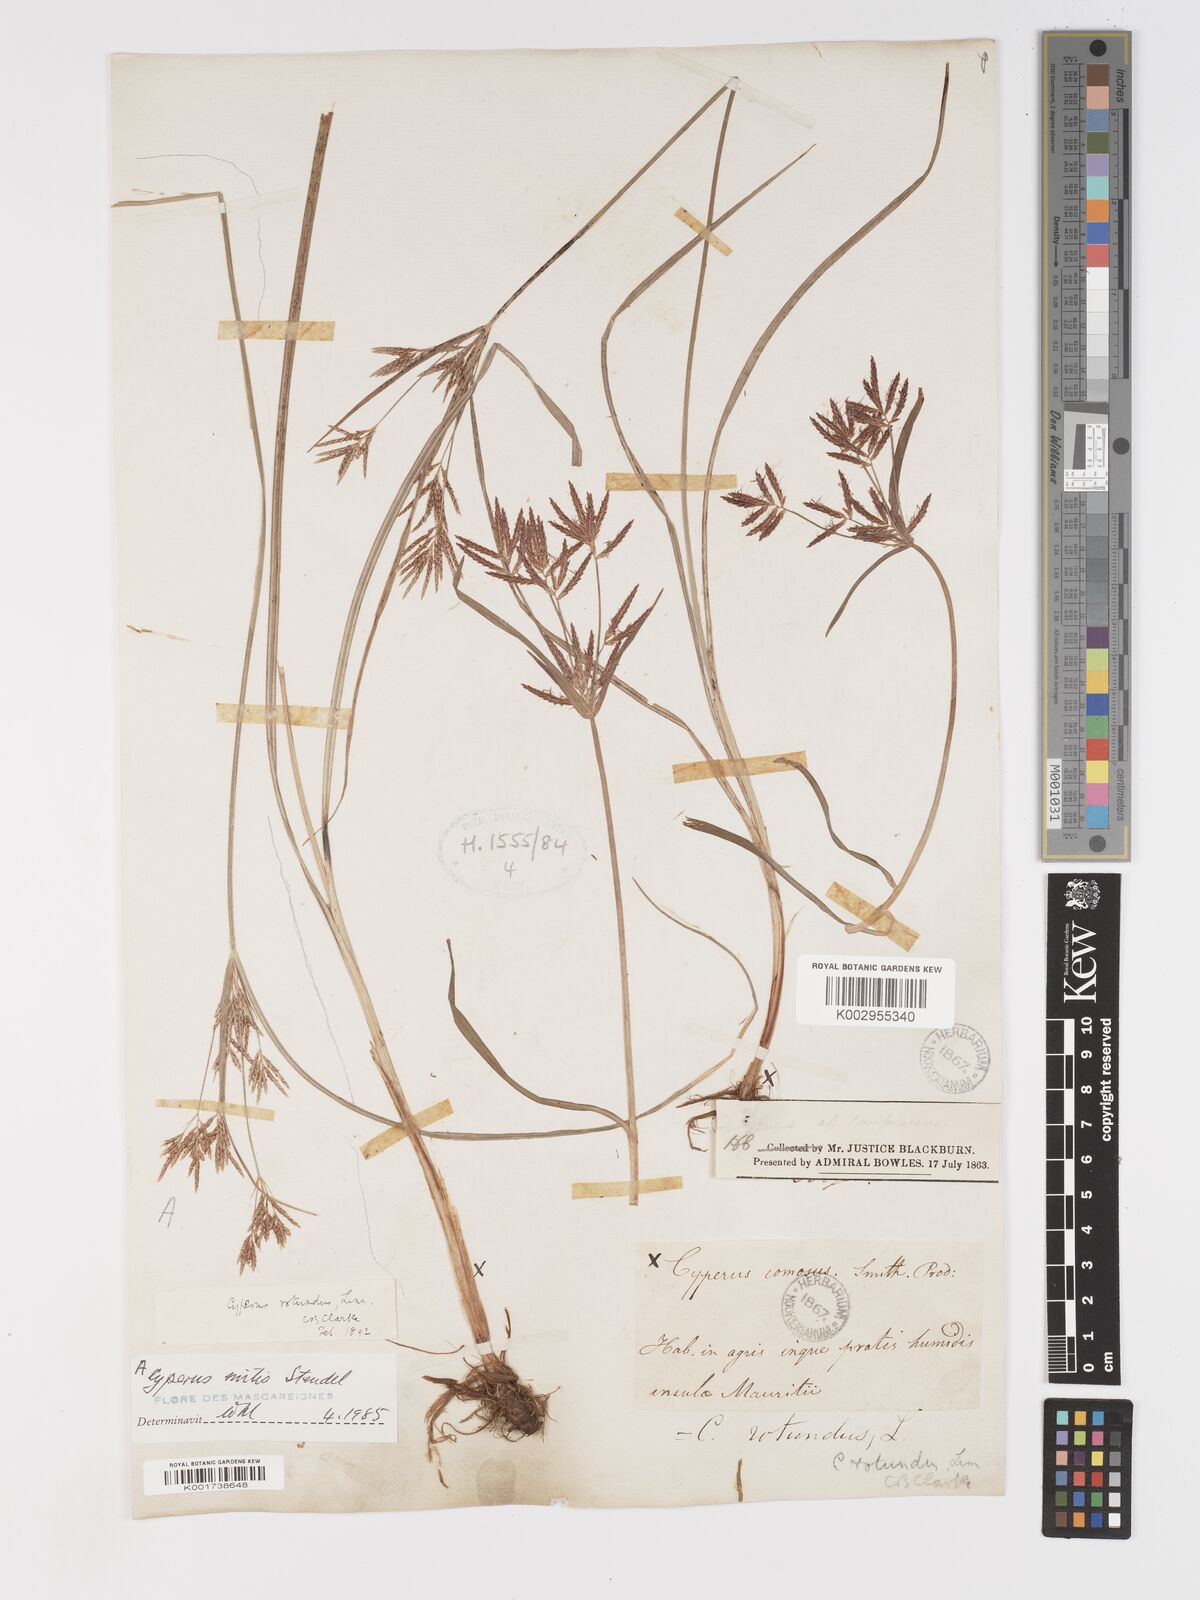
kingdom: Plantae
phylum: Tracheophyta
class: Liliopsida
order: Poales
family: Cyperaceae
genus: Cyperus
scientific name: Cyperus mitis
